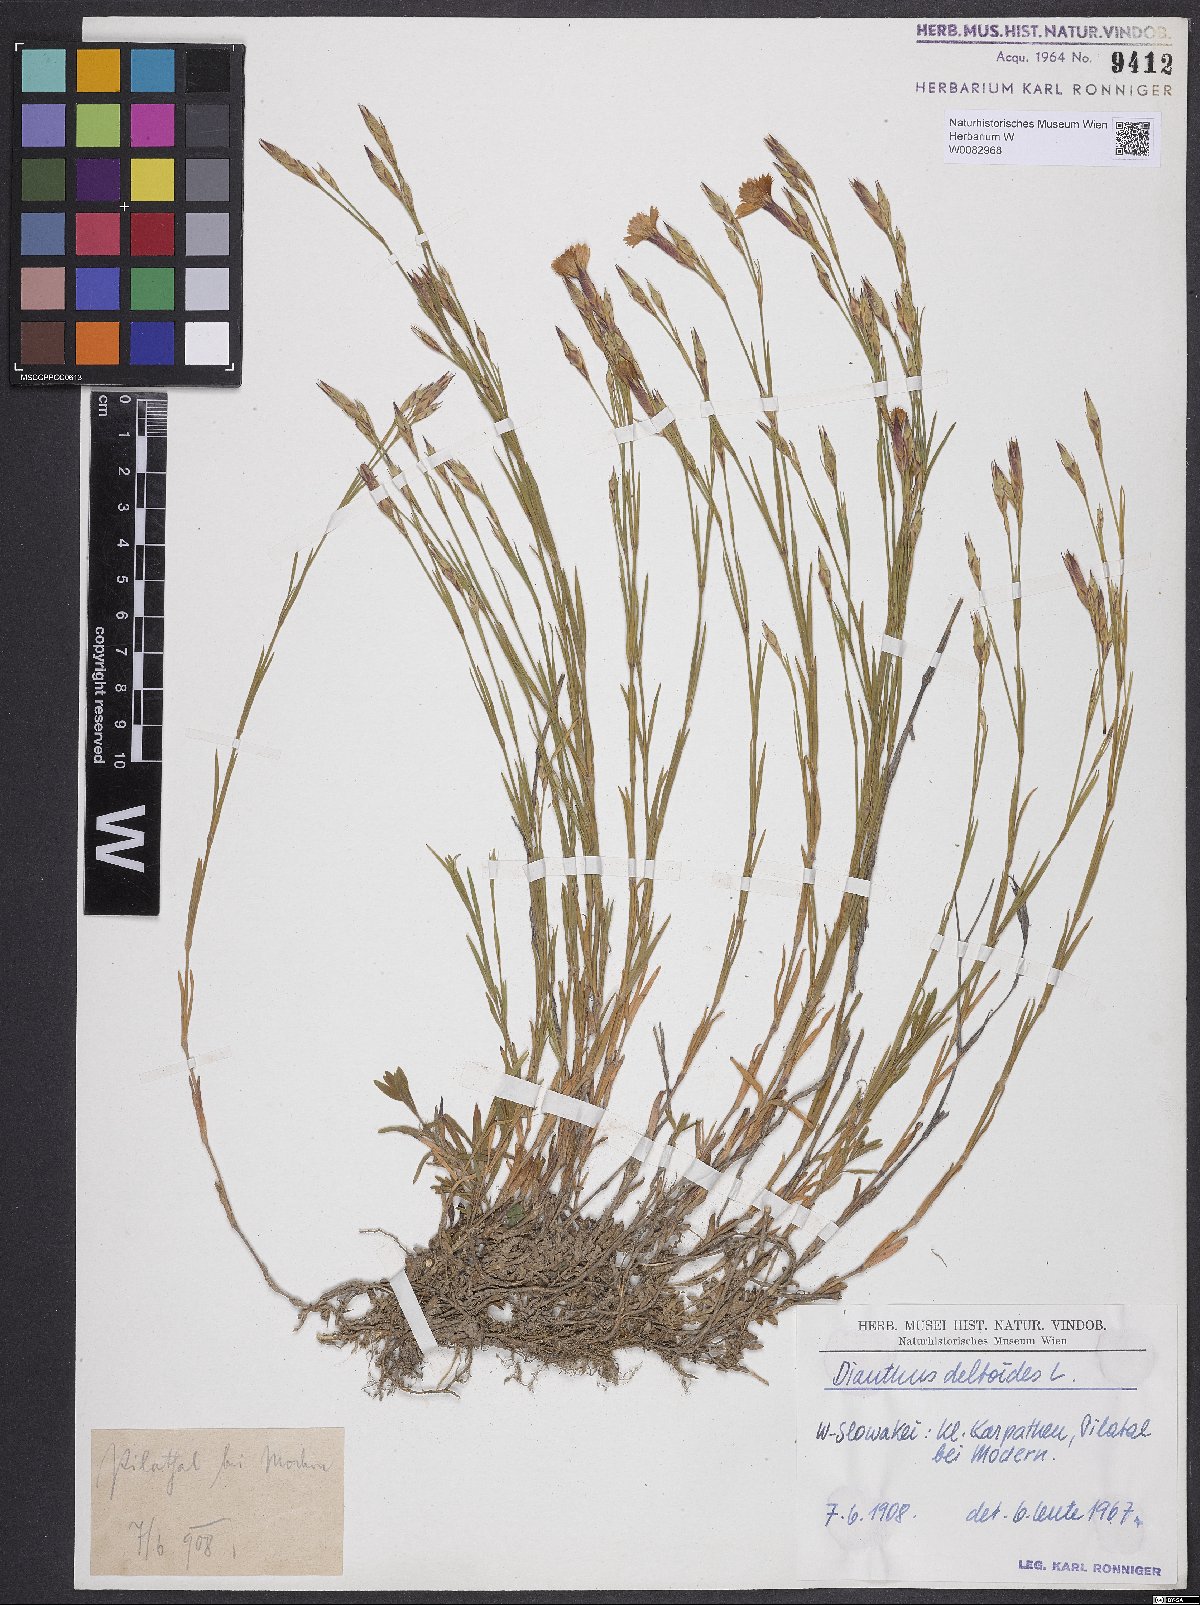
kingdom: Plantae
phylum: Tracheophyta
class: Magnoliopsida
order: Caryophyllales
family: Caryophyllaceae
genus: Dianthus
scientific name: Dianthus deltoides
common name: Maiden pink
